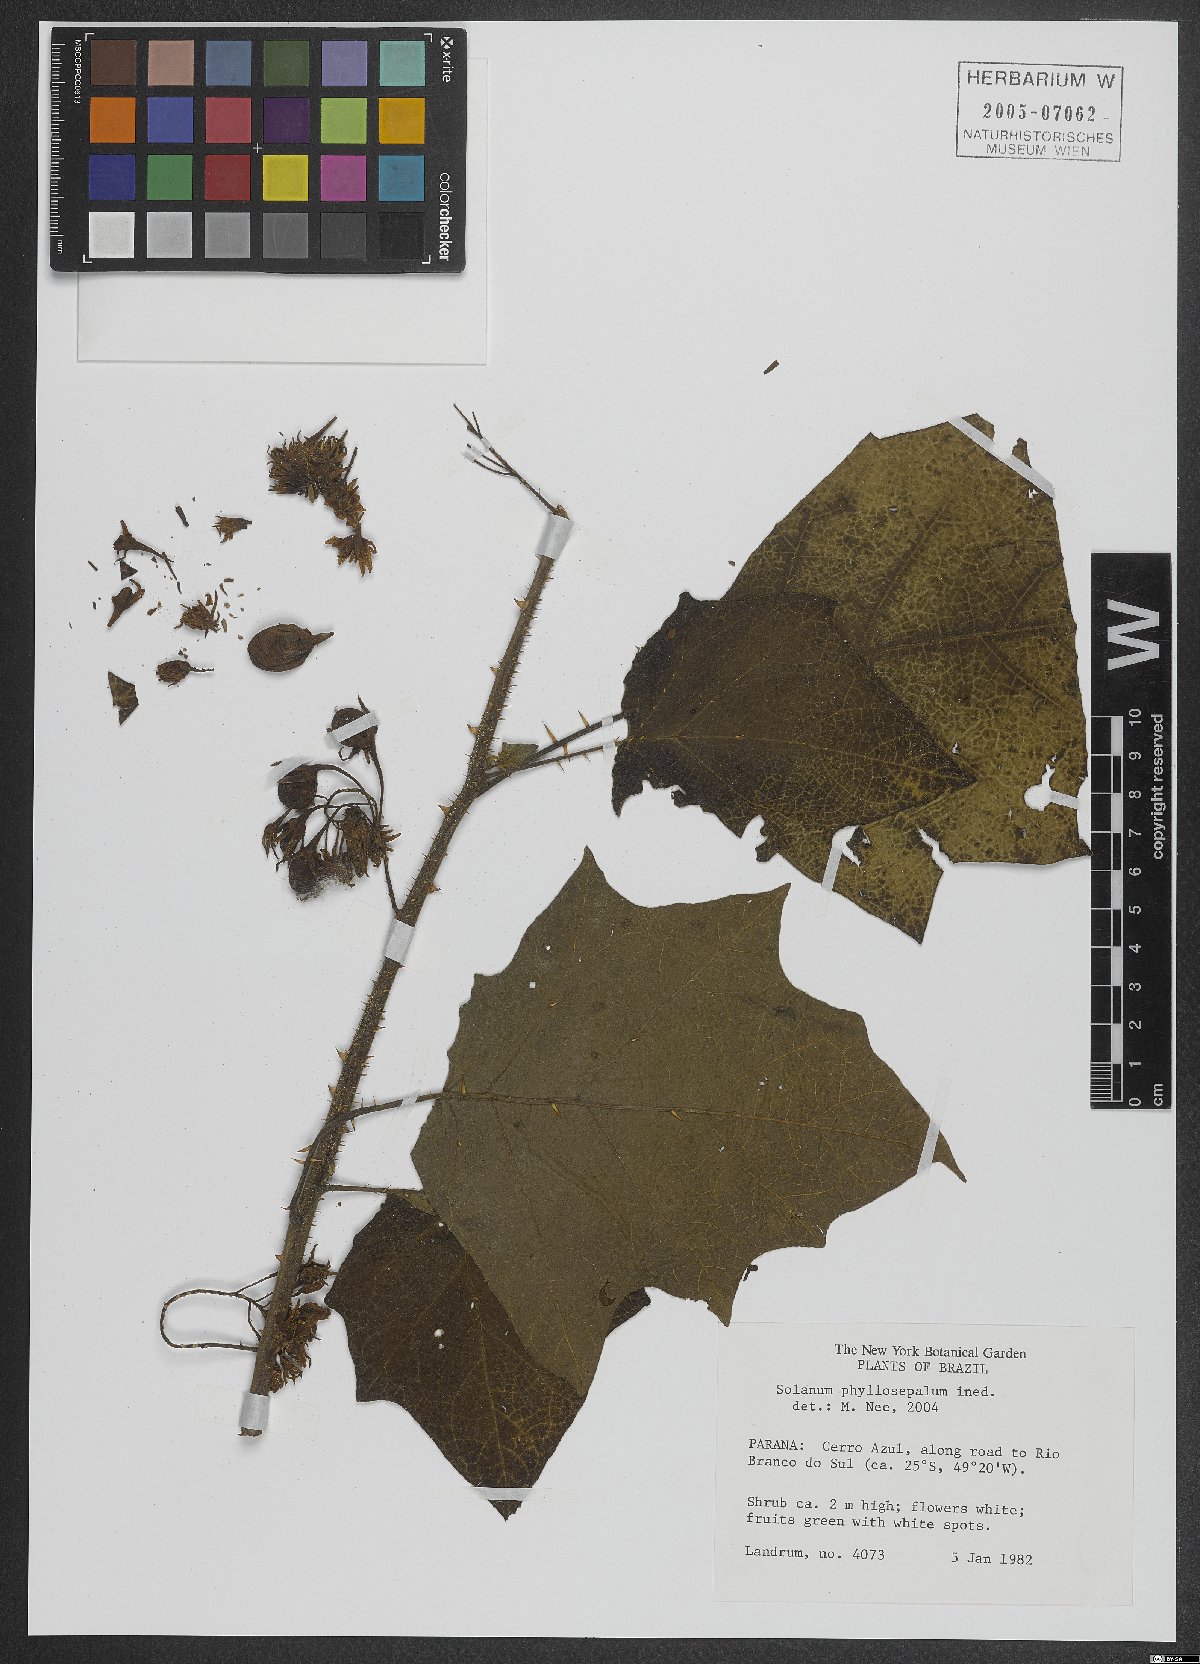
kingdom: Plantae
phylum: Tracheophyta
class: Magnoliopsida
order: Solanales
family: Solanaceae
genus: Solanum
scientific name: Solanum neei
